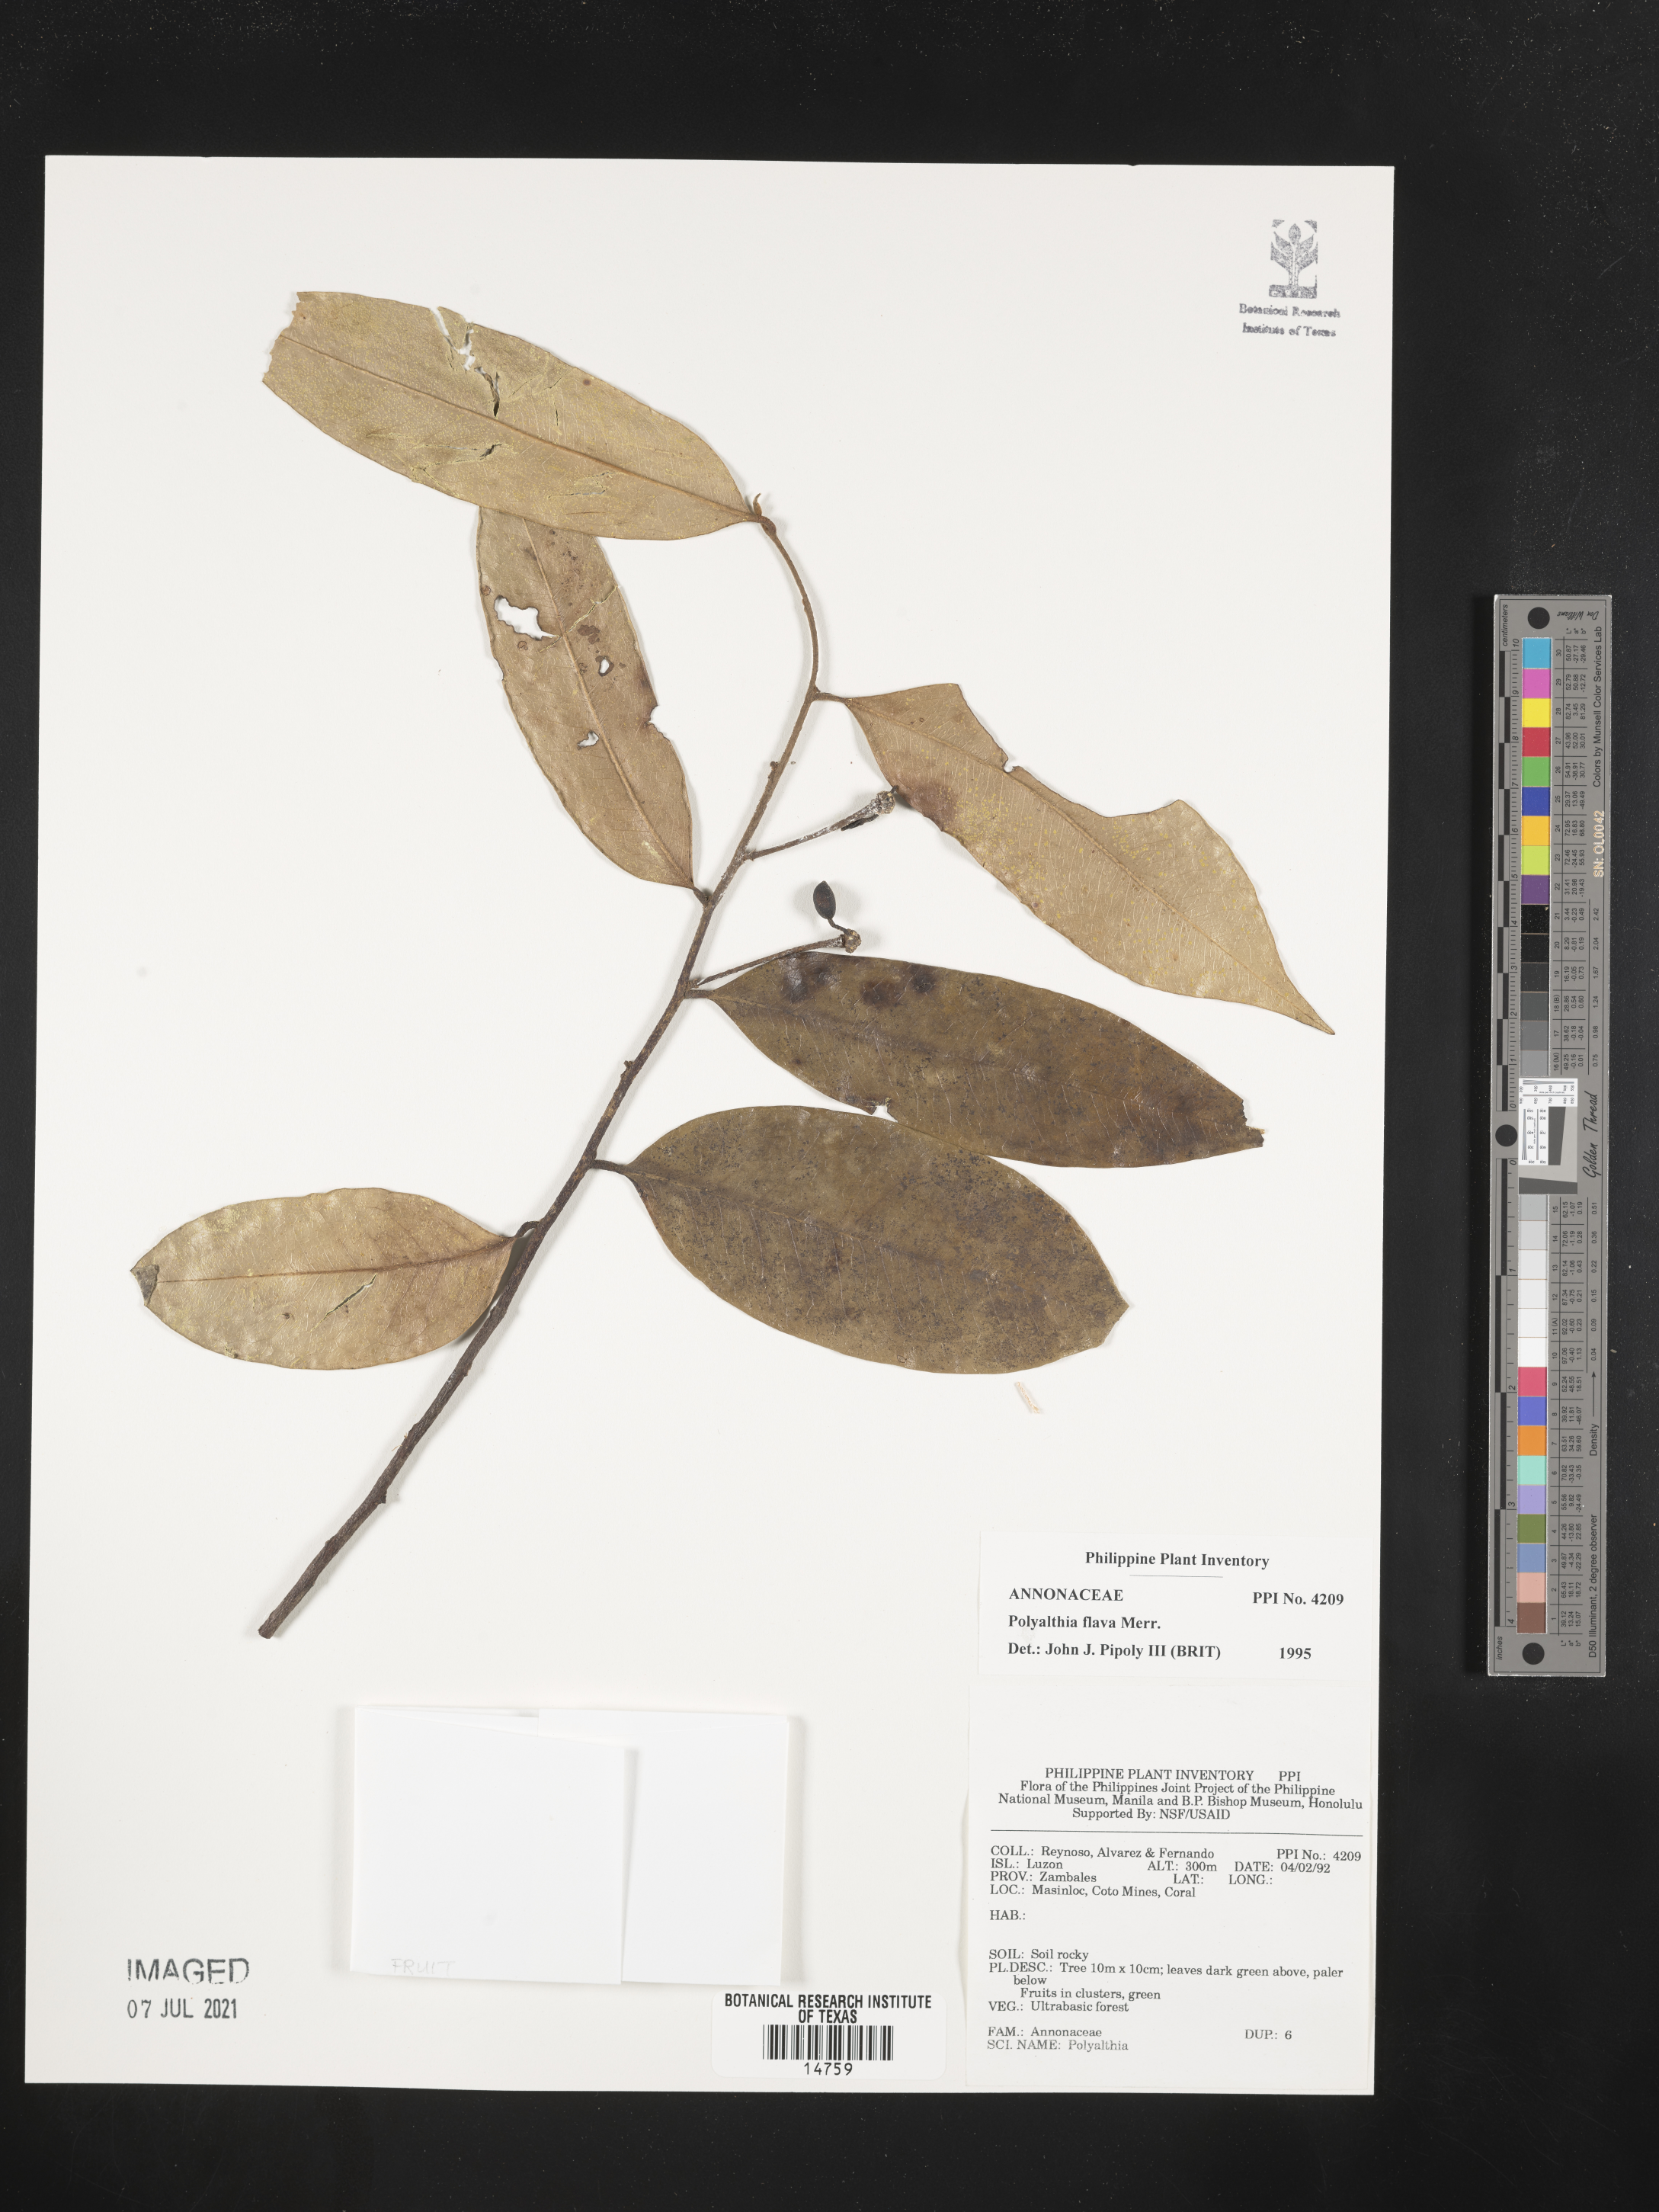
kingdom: Plantae
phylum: Tracheophyta
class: Magnoliopsida
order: Magnoliales
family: Annonaceae
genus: Polyalthia
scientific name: Polyalthia flava
